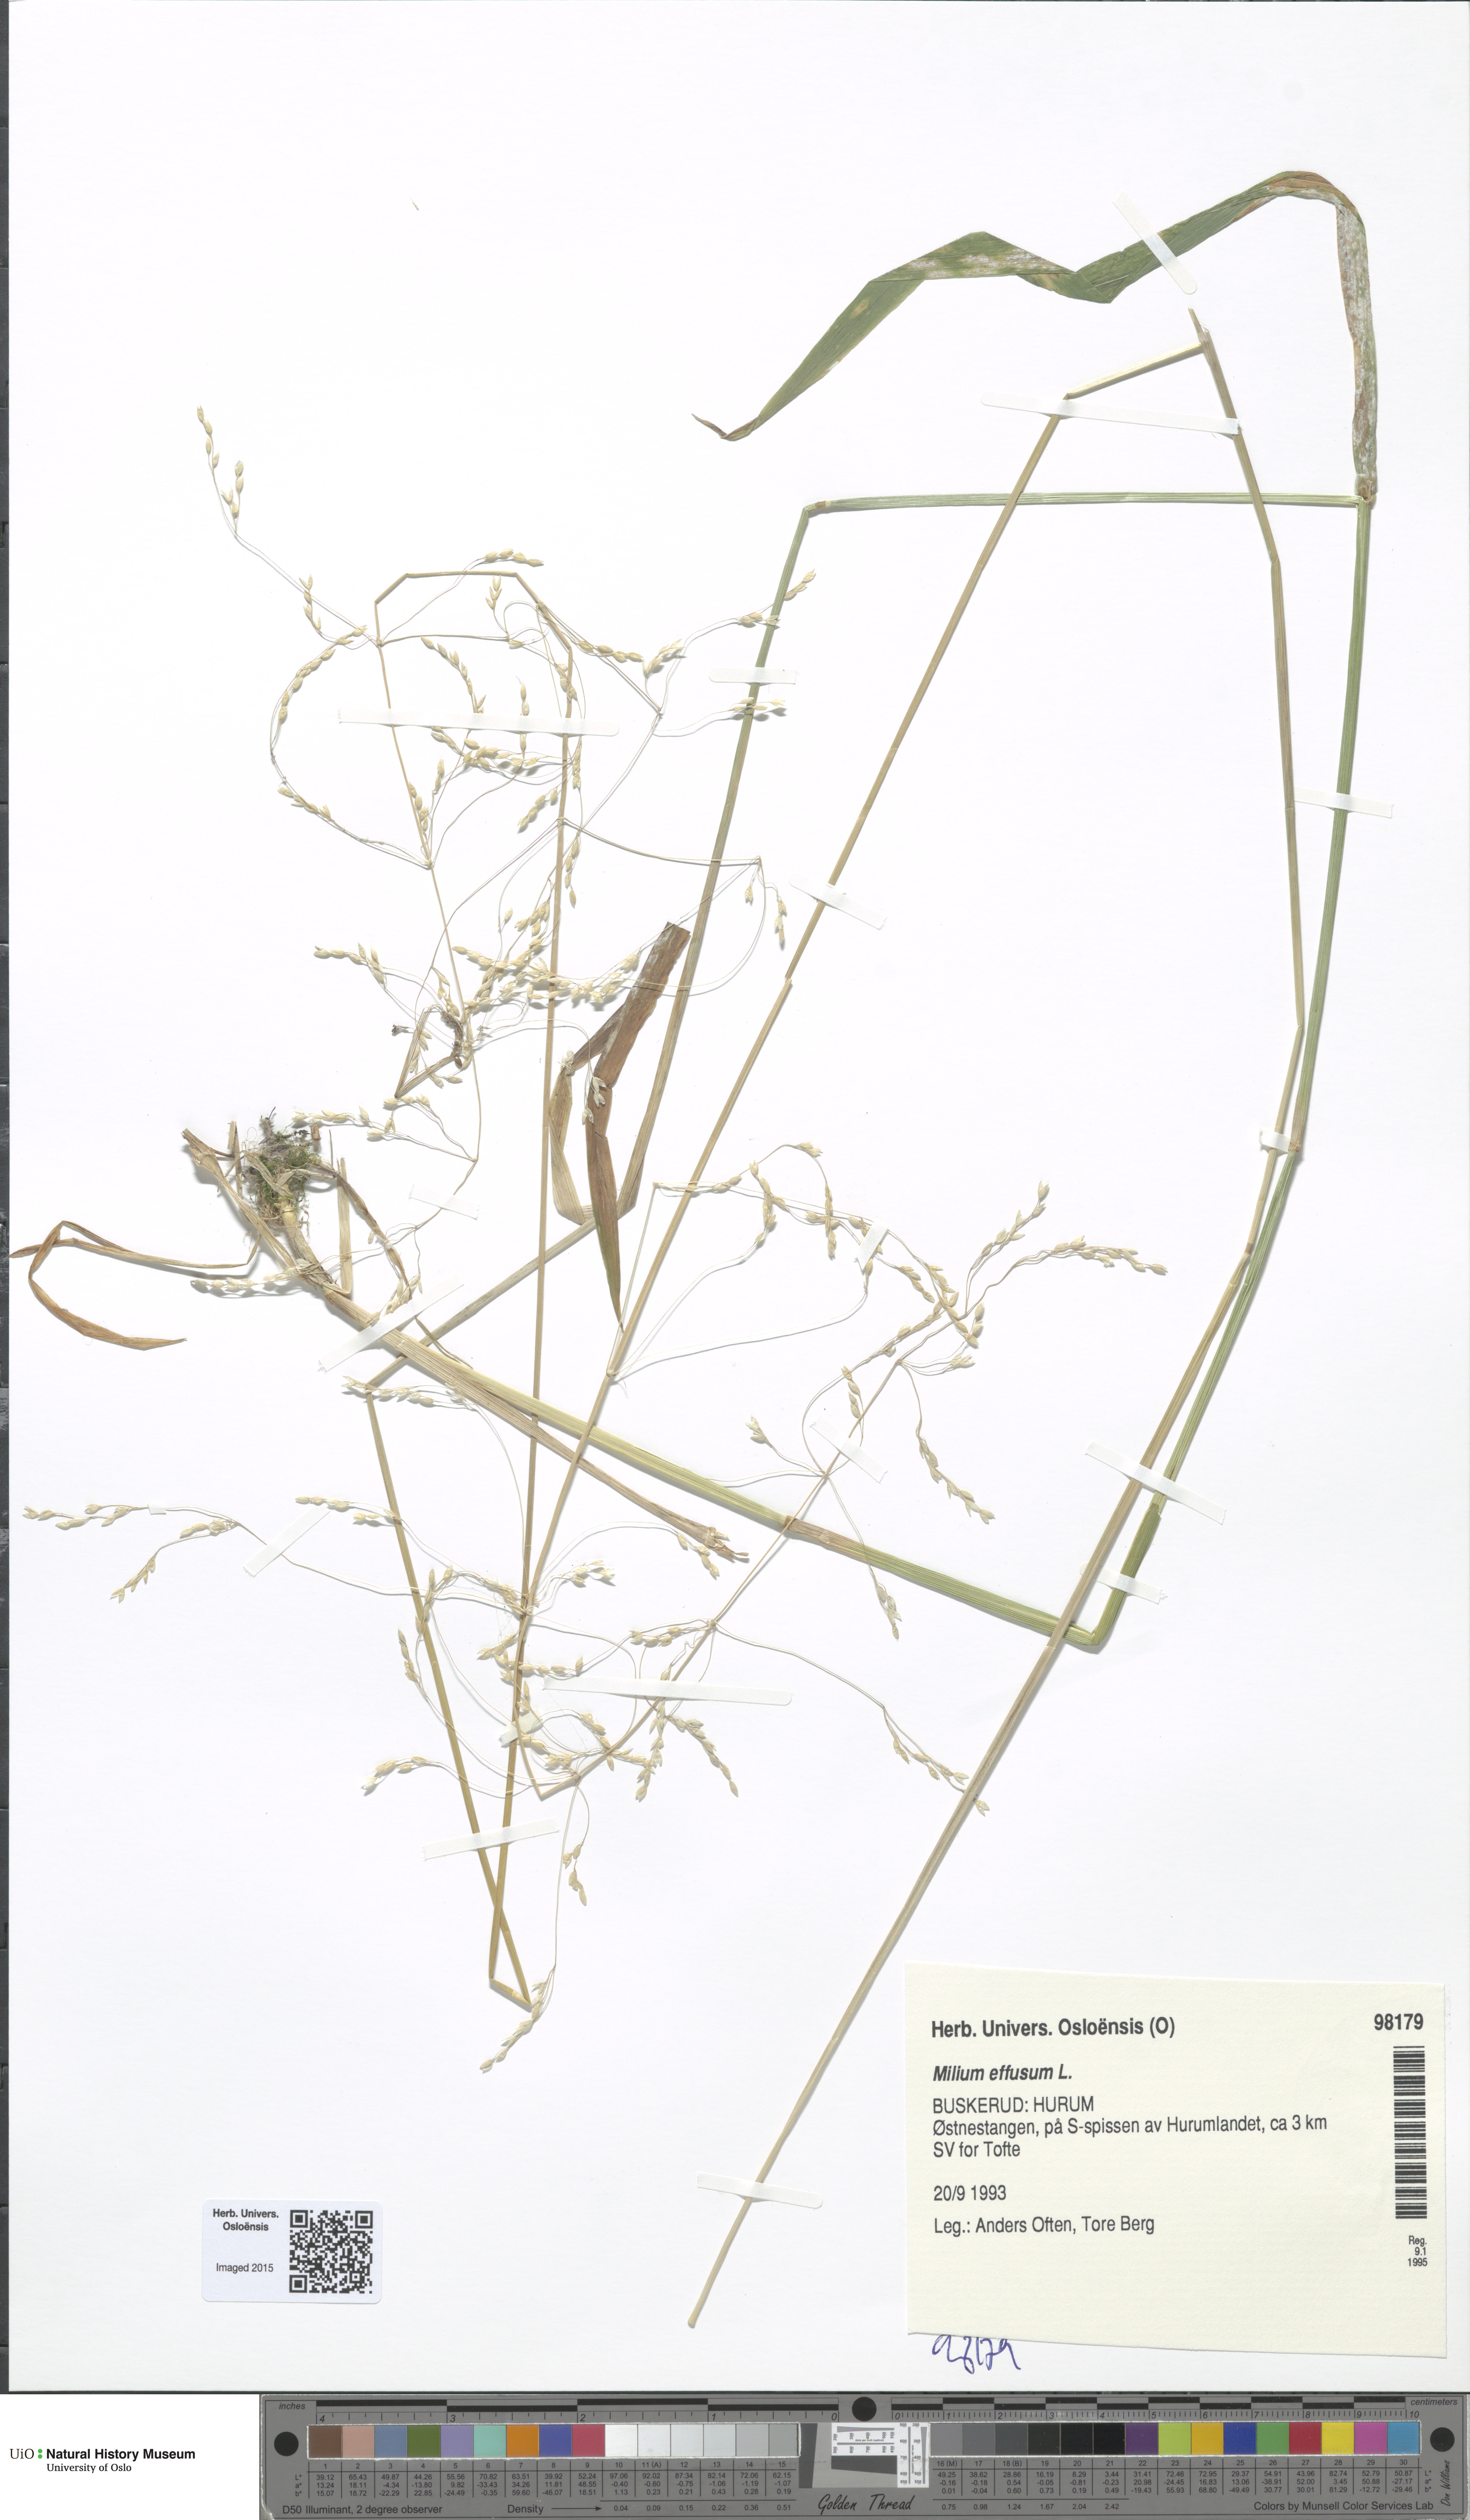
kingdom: Plantae
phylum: Tracheophyta
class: Liliopsida
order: Poales
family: Poaceae
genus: Milium
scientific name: Milium effusum
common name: Wood millet
